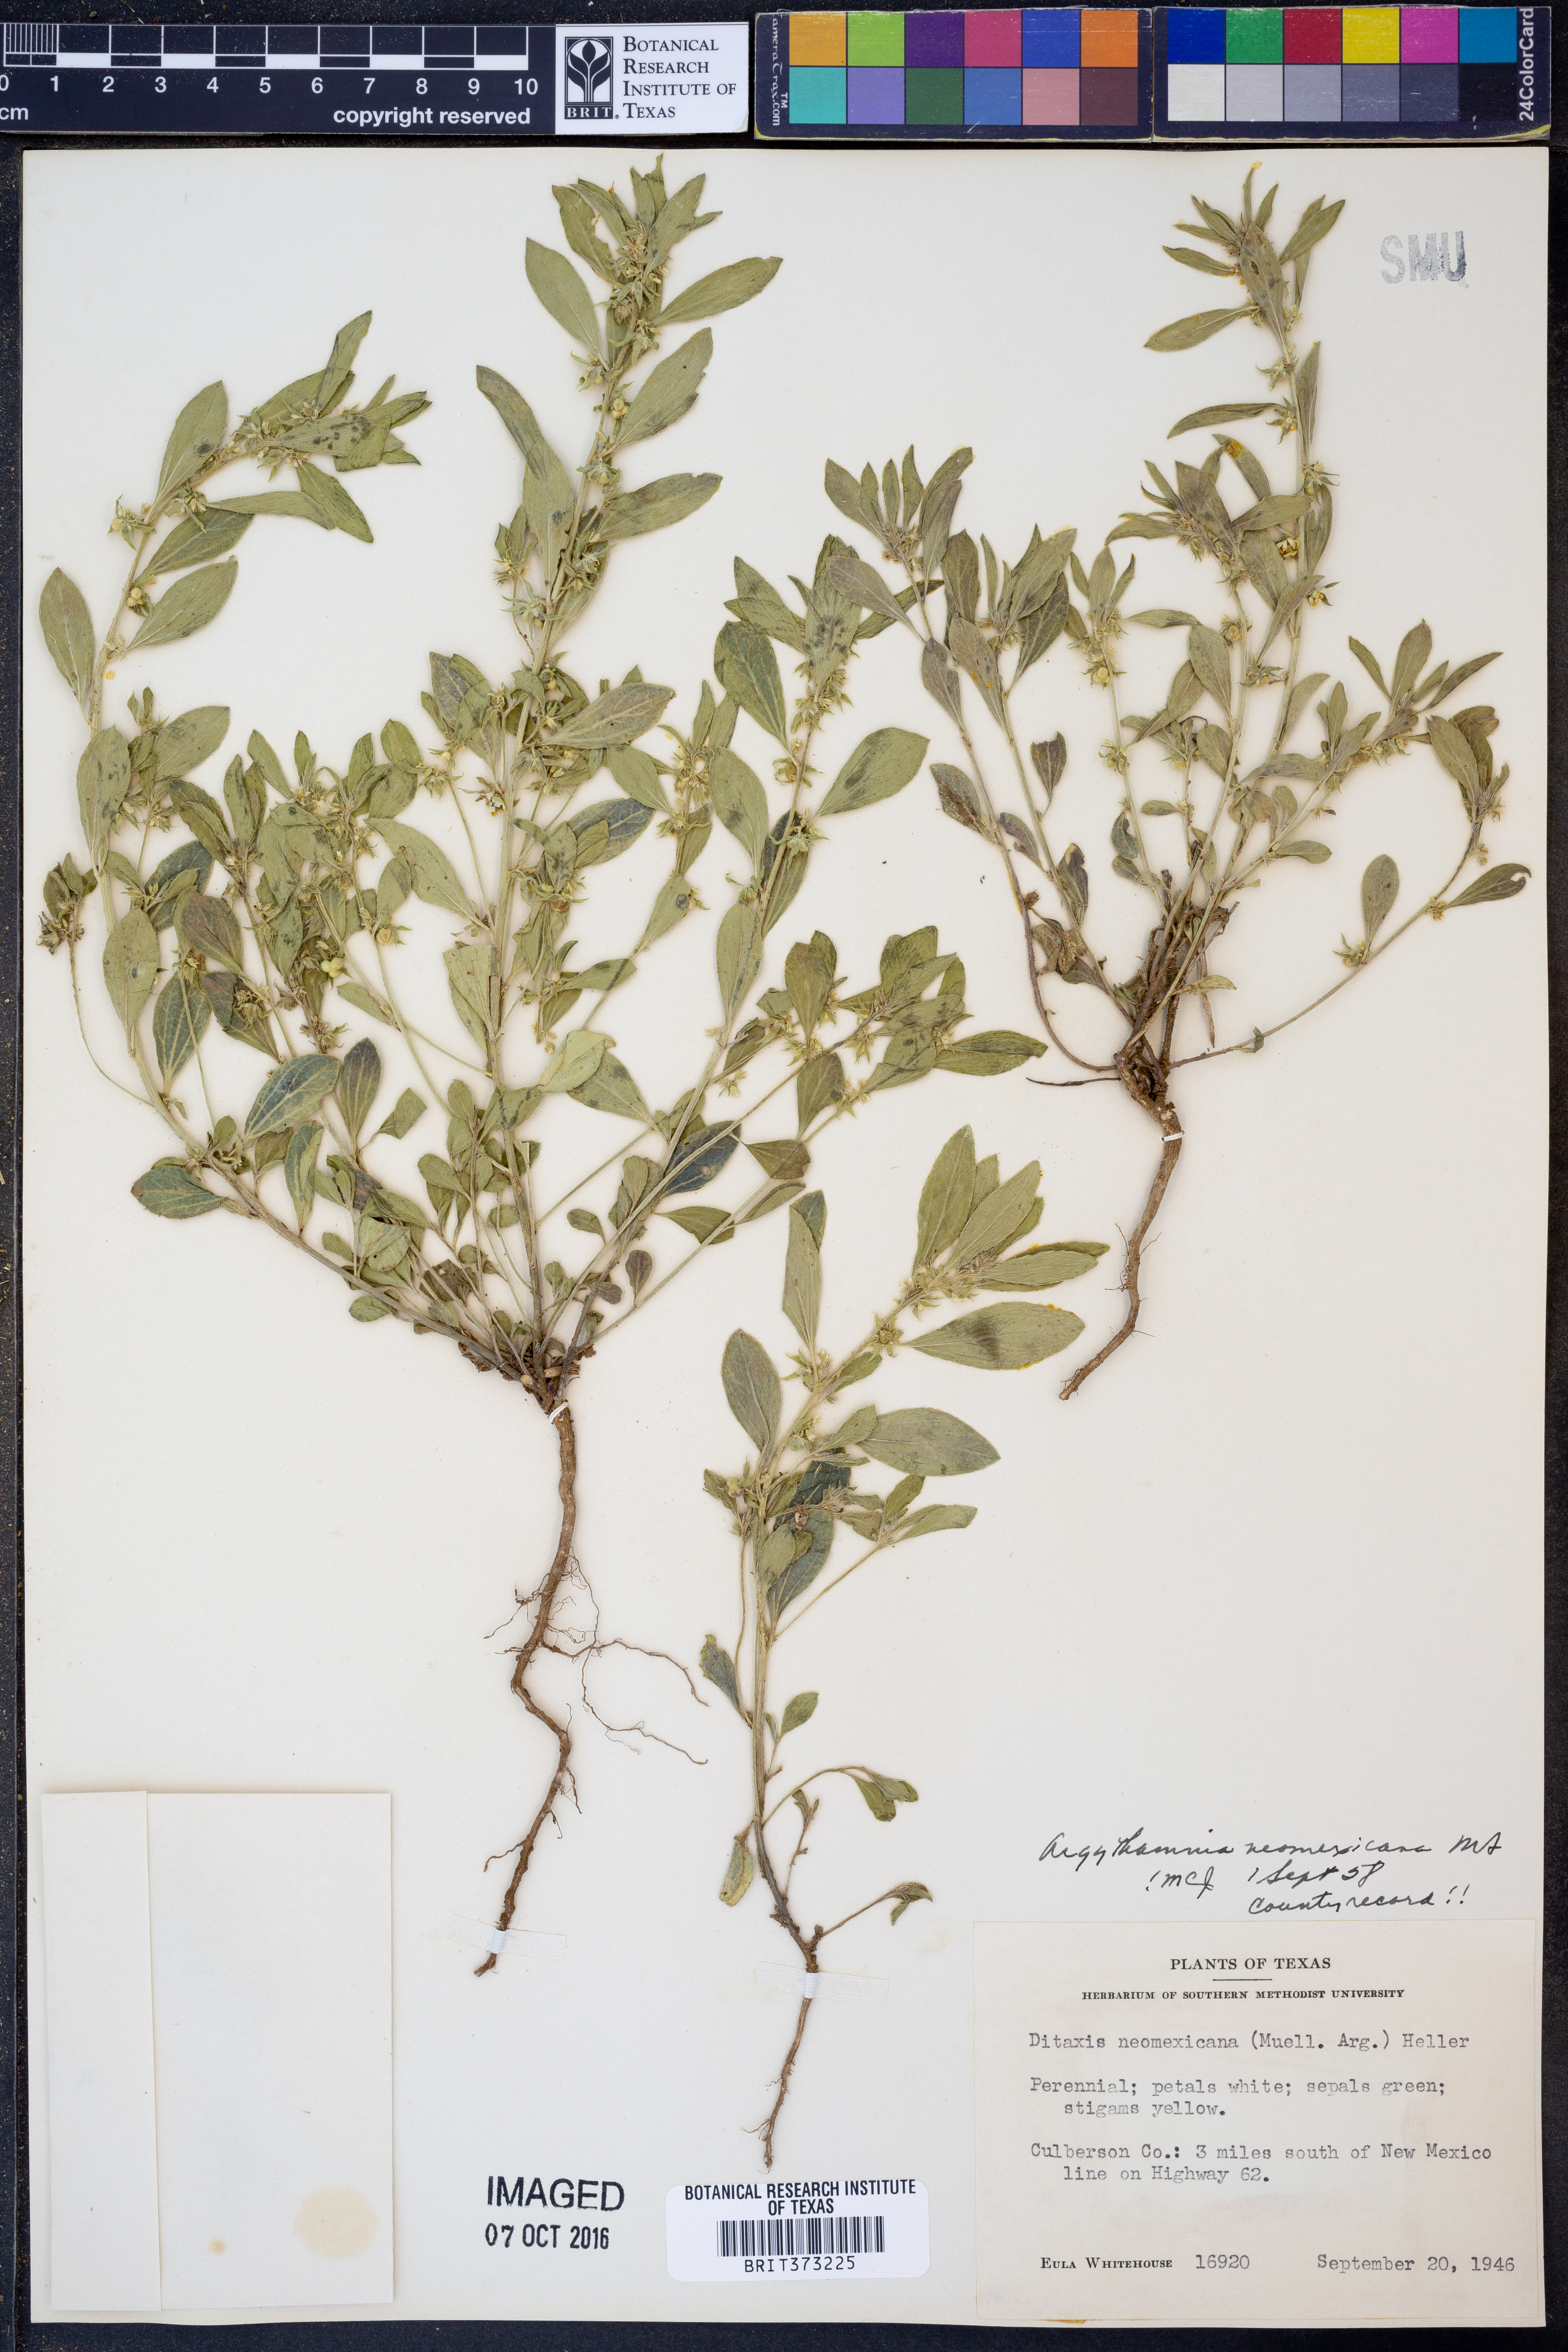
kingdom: Plantae
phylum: Tracheophyta
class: Magnoliopsida
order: Malpighiales
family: Euphorbiaceae
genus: Ditaxis
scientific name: Ditaxis serrata
